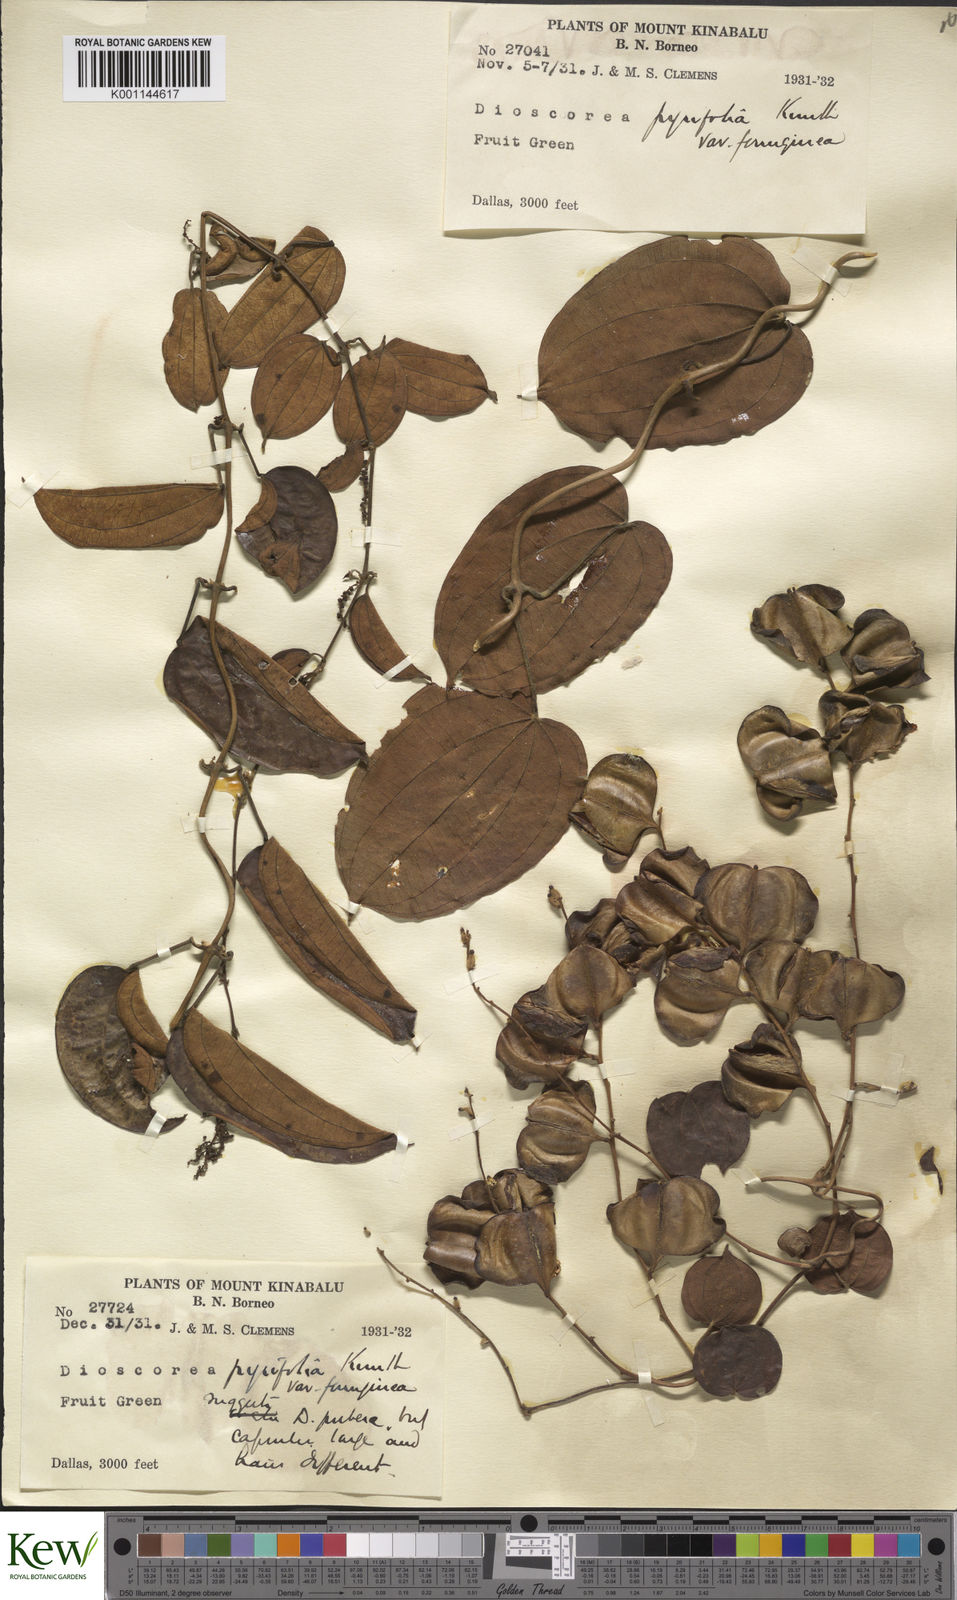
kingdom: Plantae
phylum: Tracheophyta
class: Liliopsida
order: Dioscoreales
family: Dioscoreaceae
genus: Dioscorea
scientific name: Dioscorea pyrifolia
